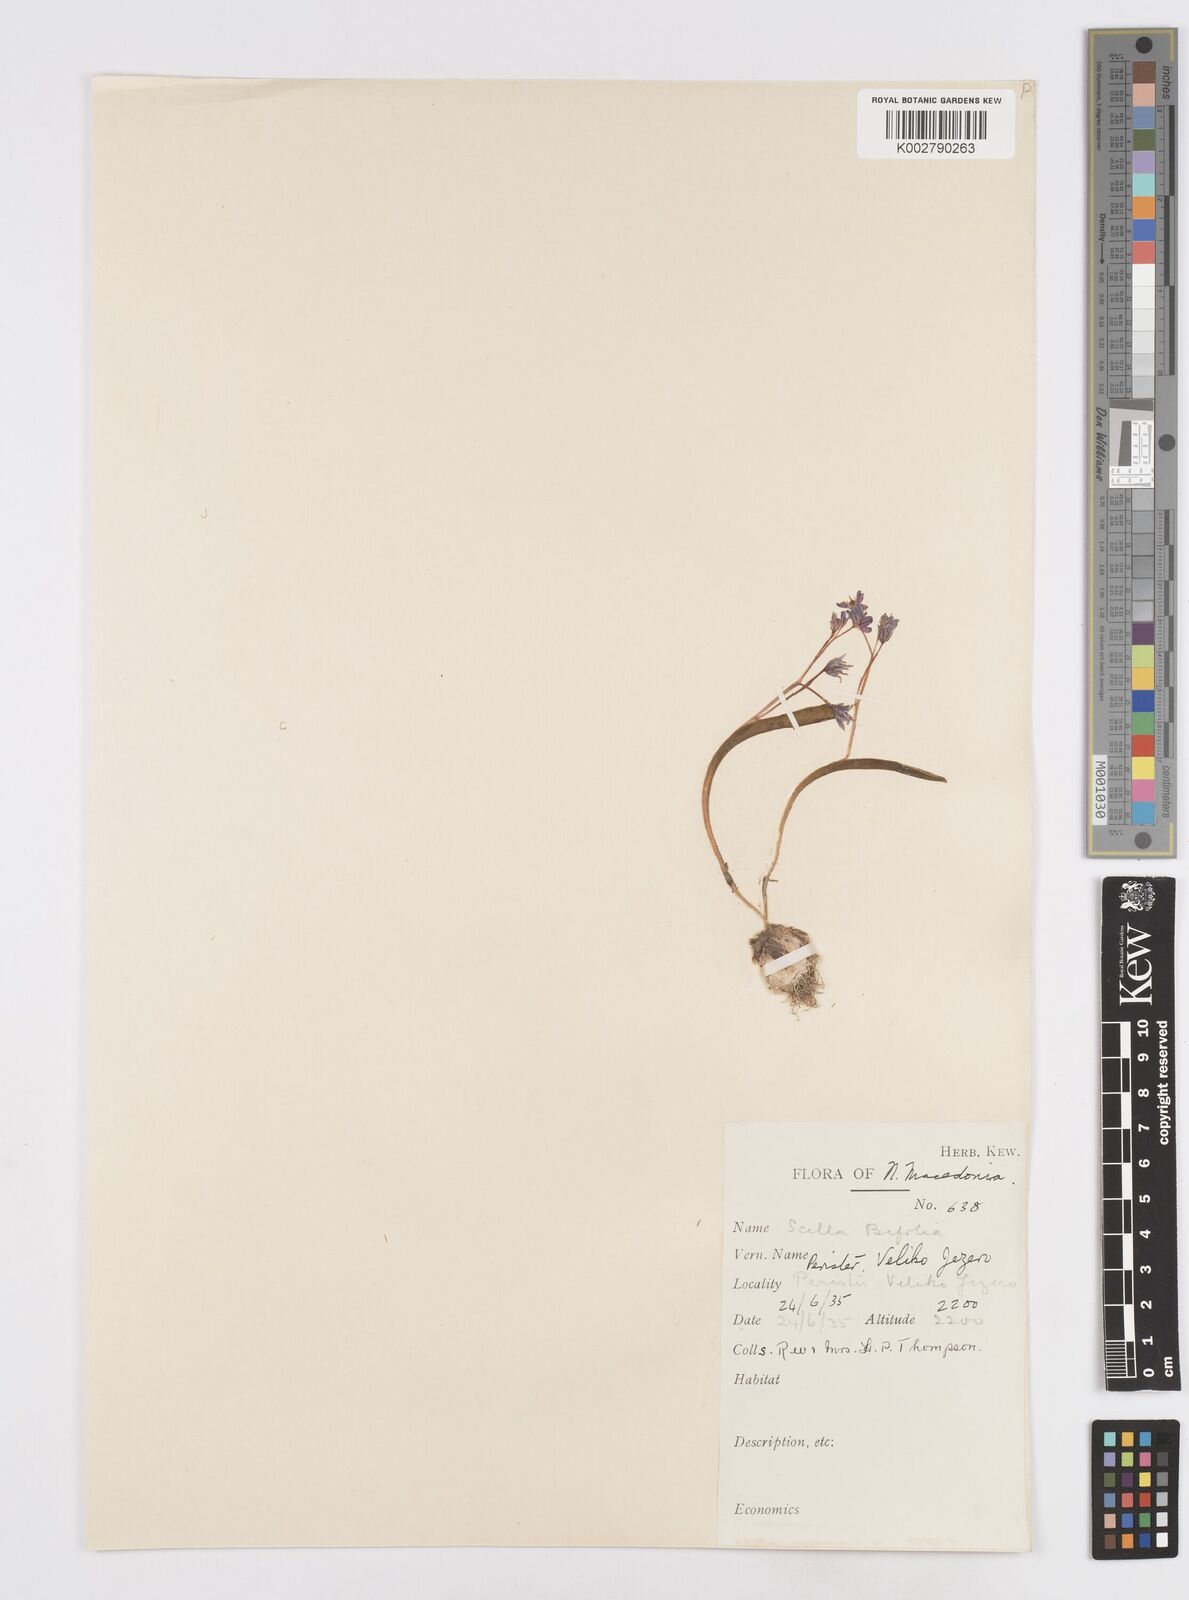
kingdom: Plantae
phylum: Tracheophyta
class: Liliopsida
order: Asparagales
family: Asparagaceae
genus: Scilla
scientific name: Scilla bifolia
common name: Alpine squill
